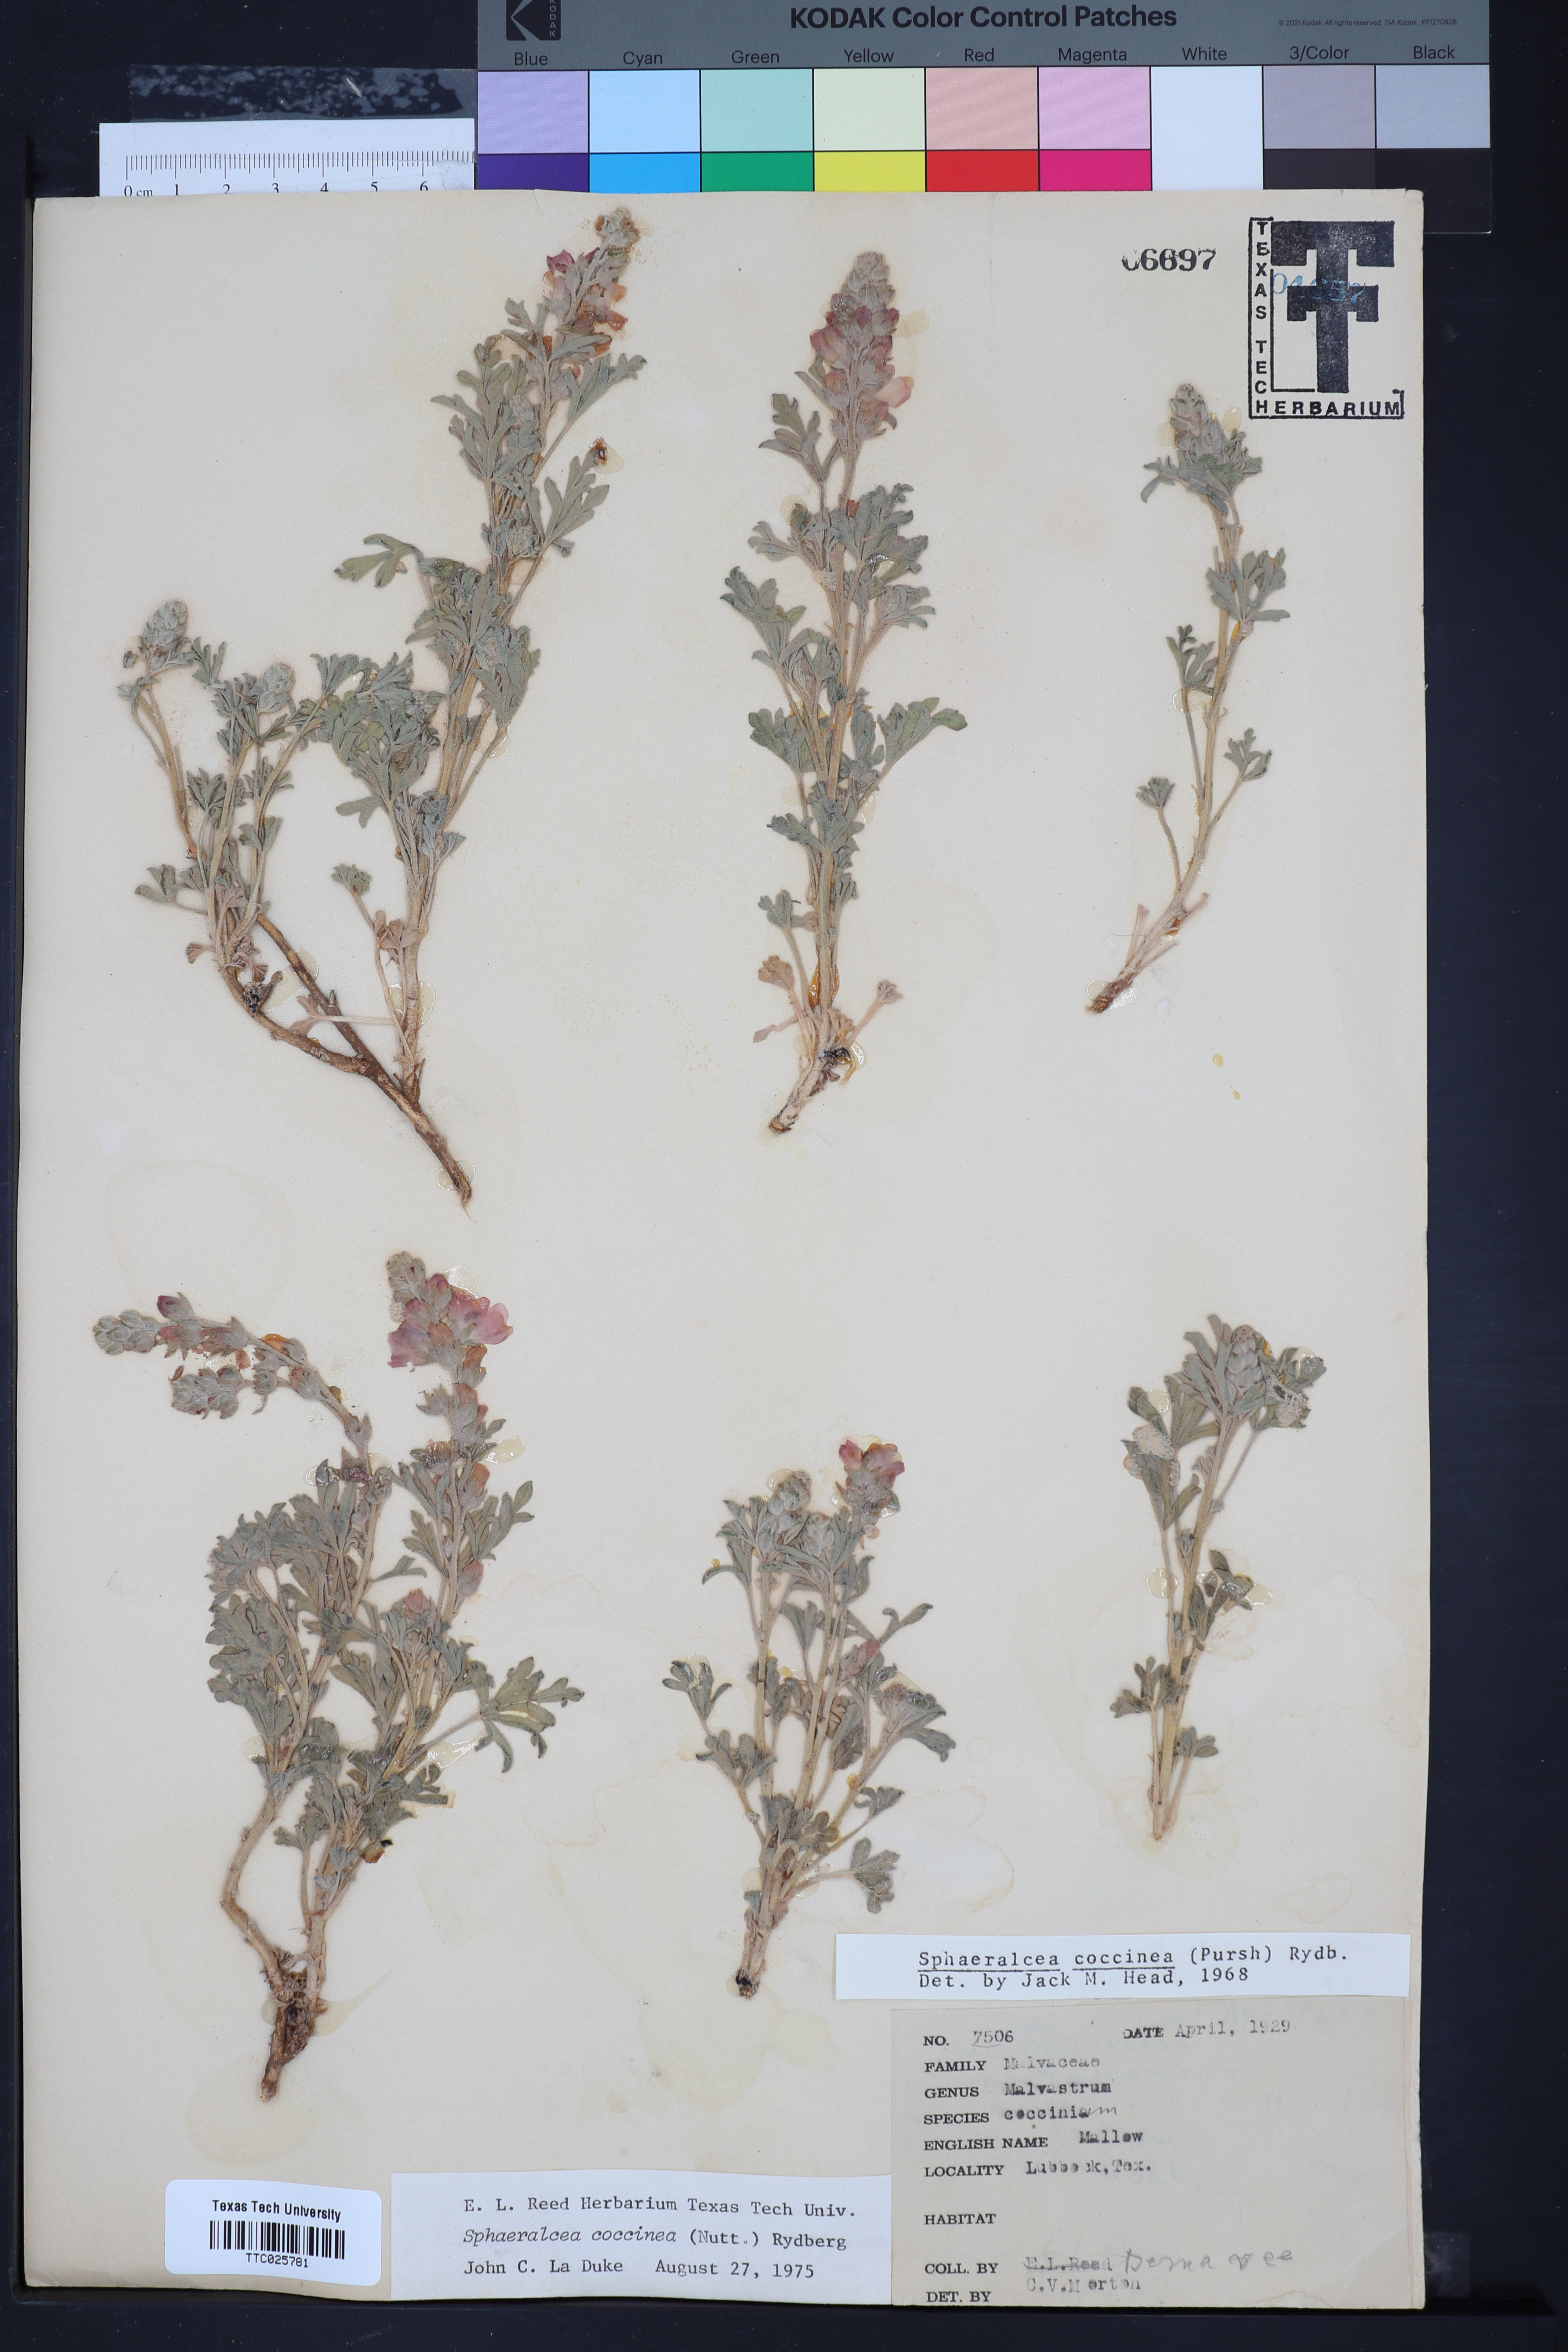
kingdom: Plantae
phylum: Tracheophyta
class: Magnoliopsida
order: Malvales
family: Malvaceae
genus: Sphaeralcea
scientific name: Sphaeralcea coccinea
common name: Moss-rose
